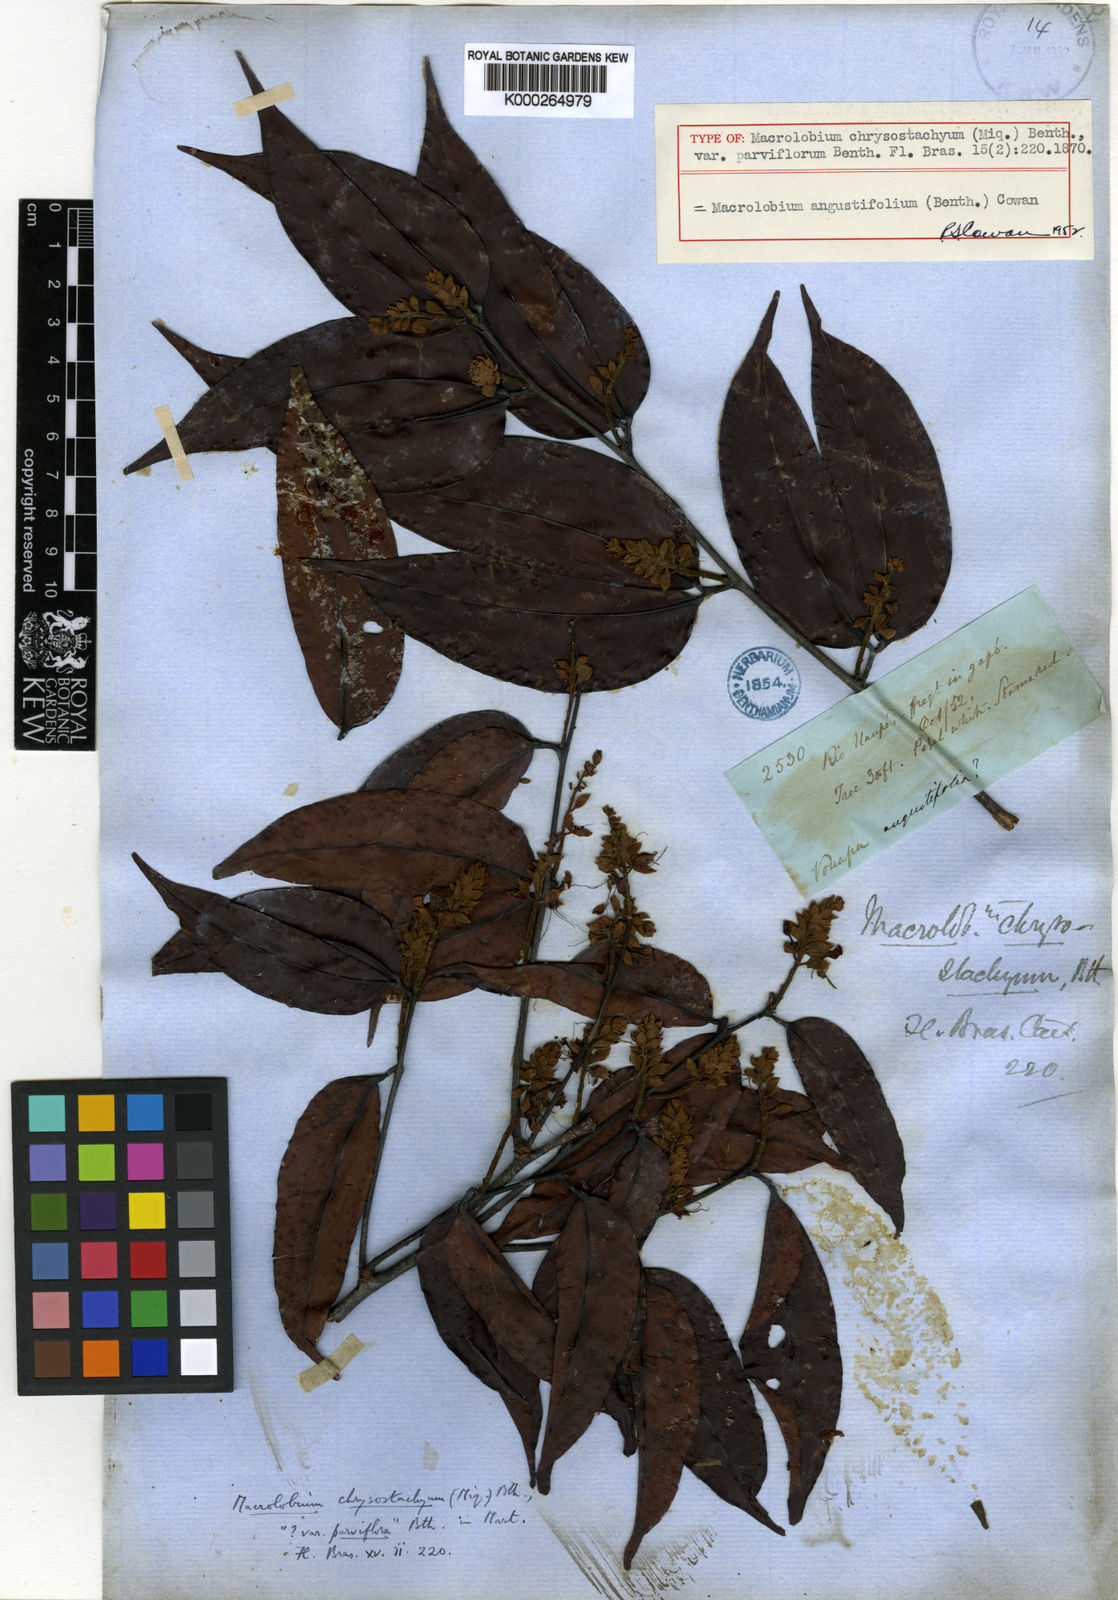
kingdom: Plantae
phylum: Tracheophyta
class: Magnoliopsida
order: Fabales
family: Fabaceae
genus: Macrolobium
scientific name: Macrolobium angustifolium
